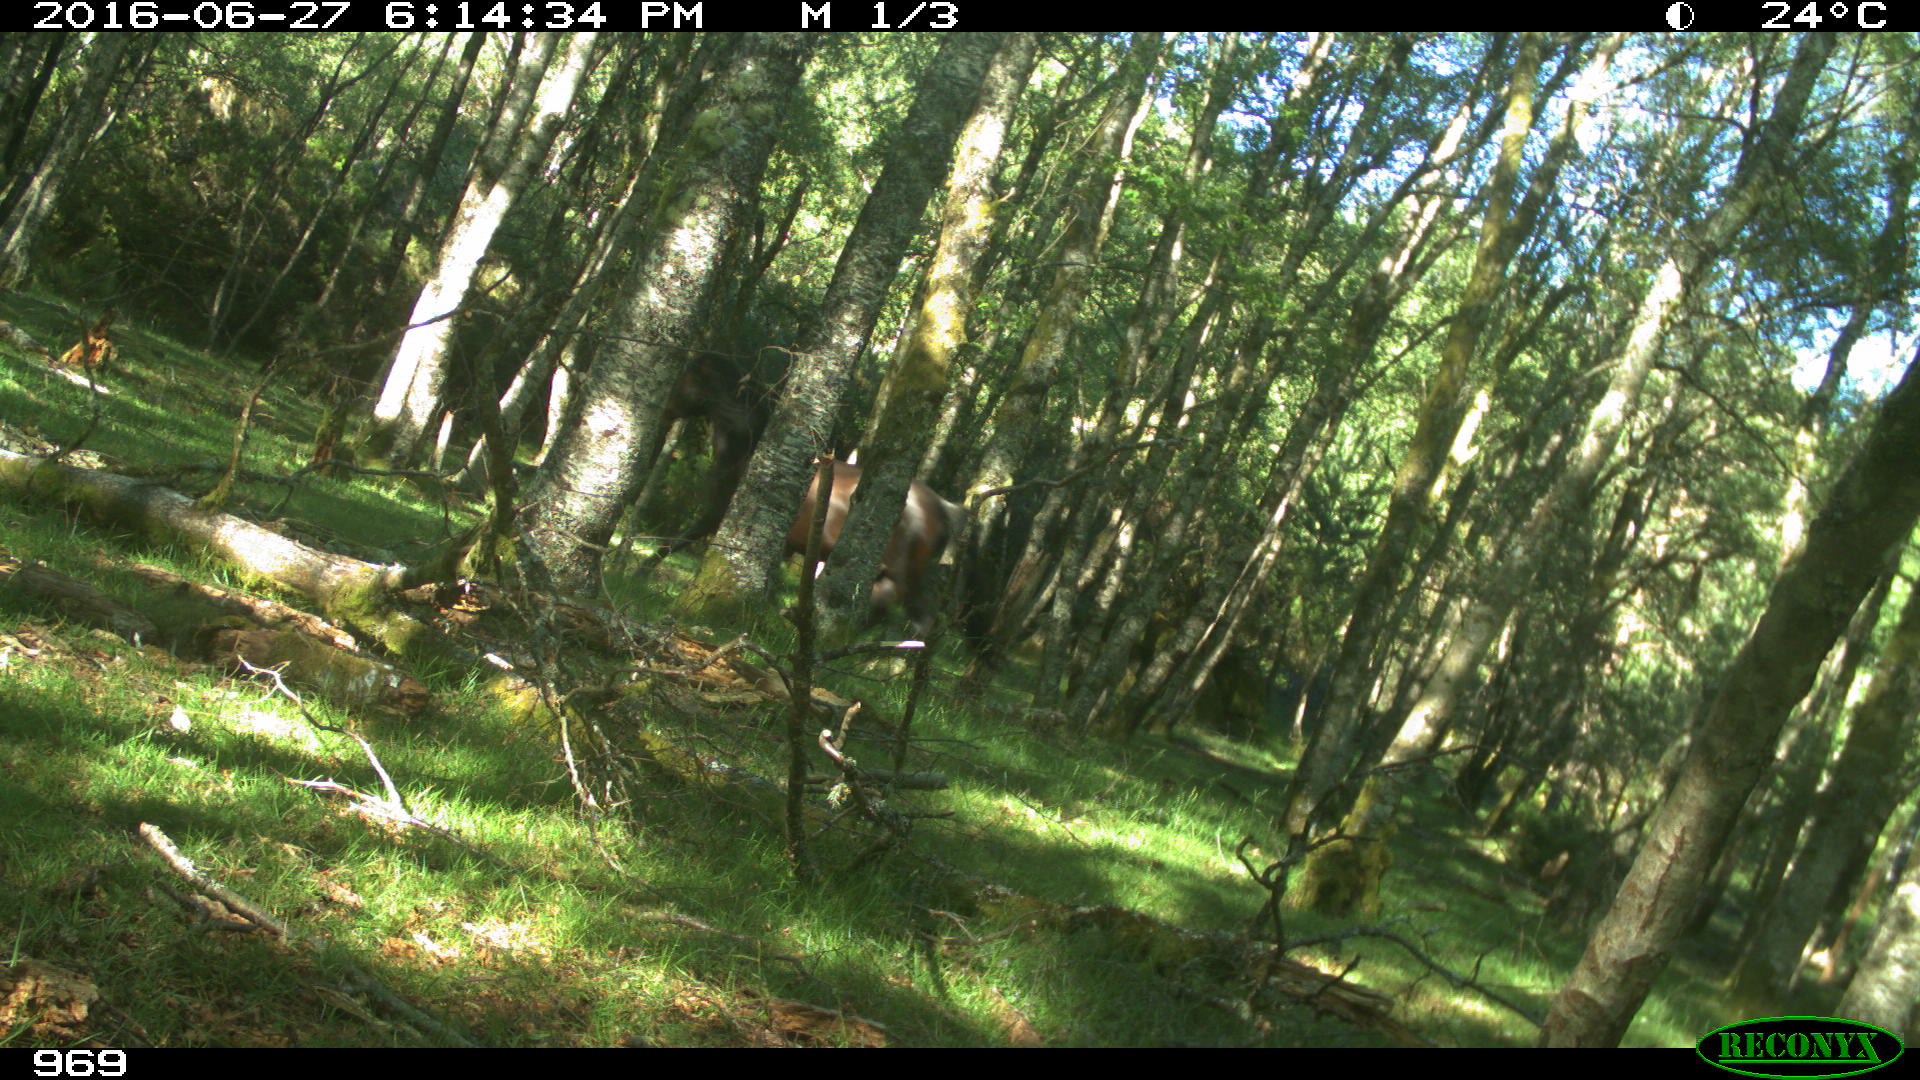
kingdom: Animalia
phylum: Chordata
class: Mammalia
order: Perissodactyla
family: Equidae
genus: Equus
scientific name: Equus caballus
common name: Horse
